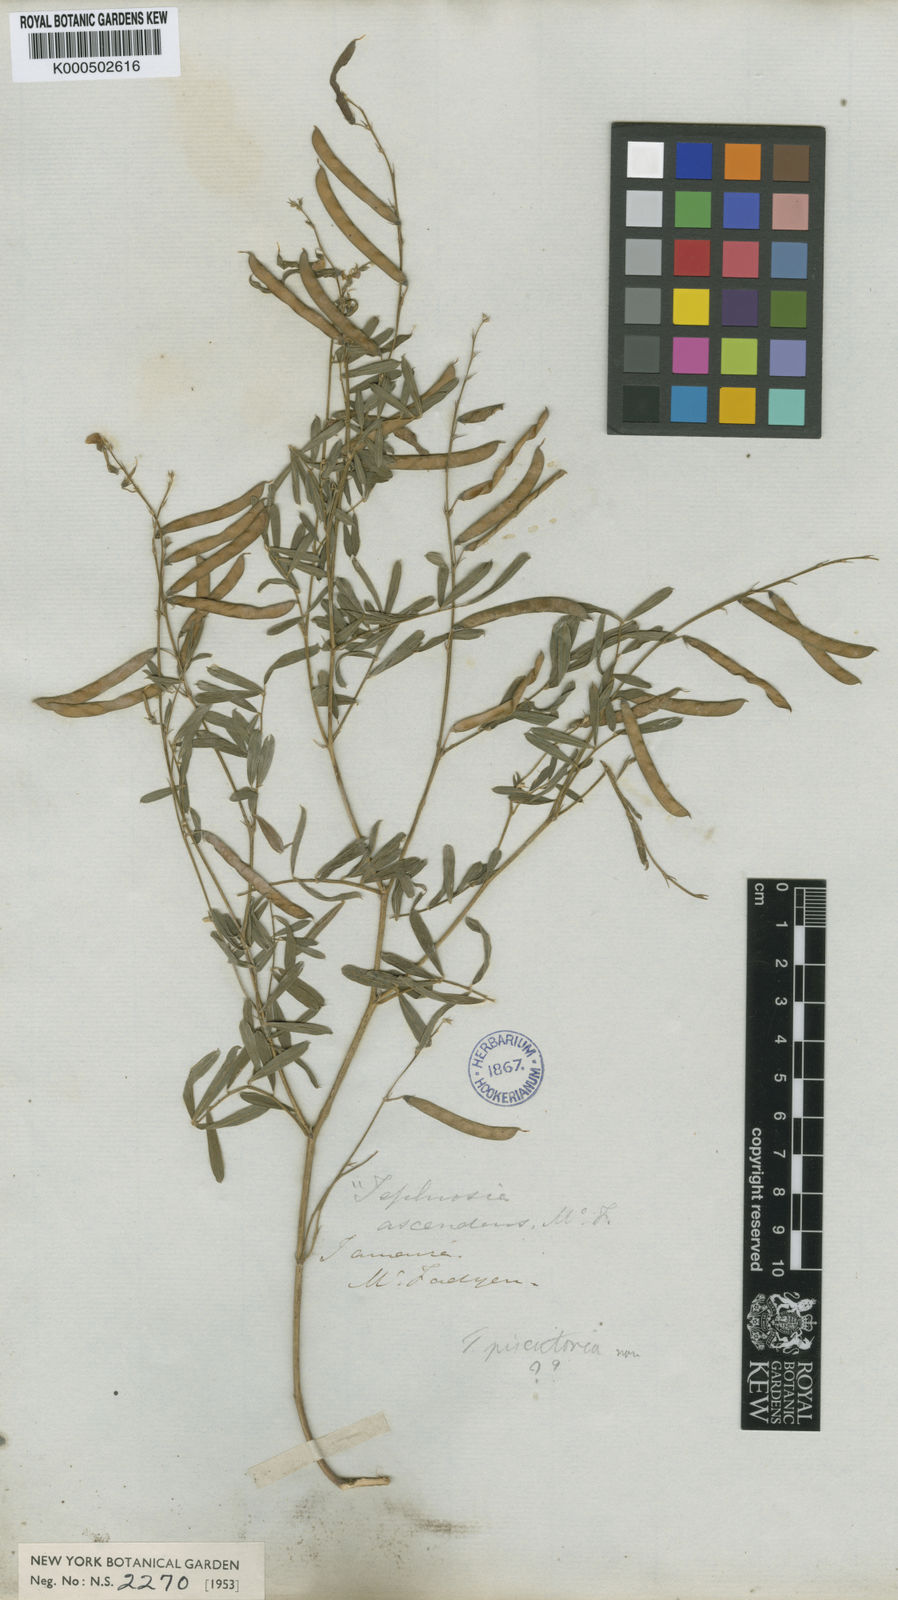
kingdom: Plantae
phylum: Tracheophyta
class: Magnoliopsida
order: Fabales
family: Fabaceae
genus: Tephrosia
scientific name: Tephrosia purpurea
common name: Fishpoison
